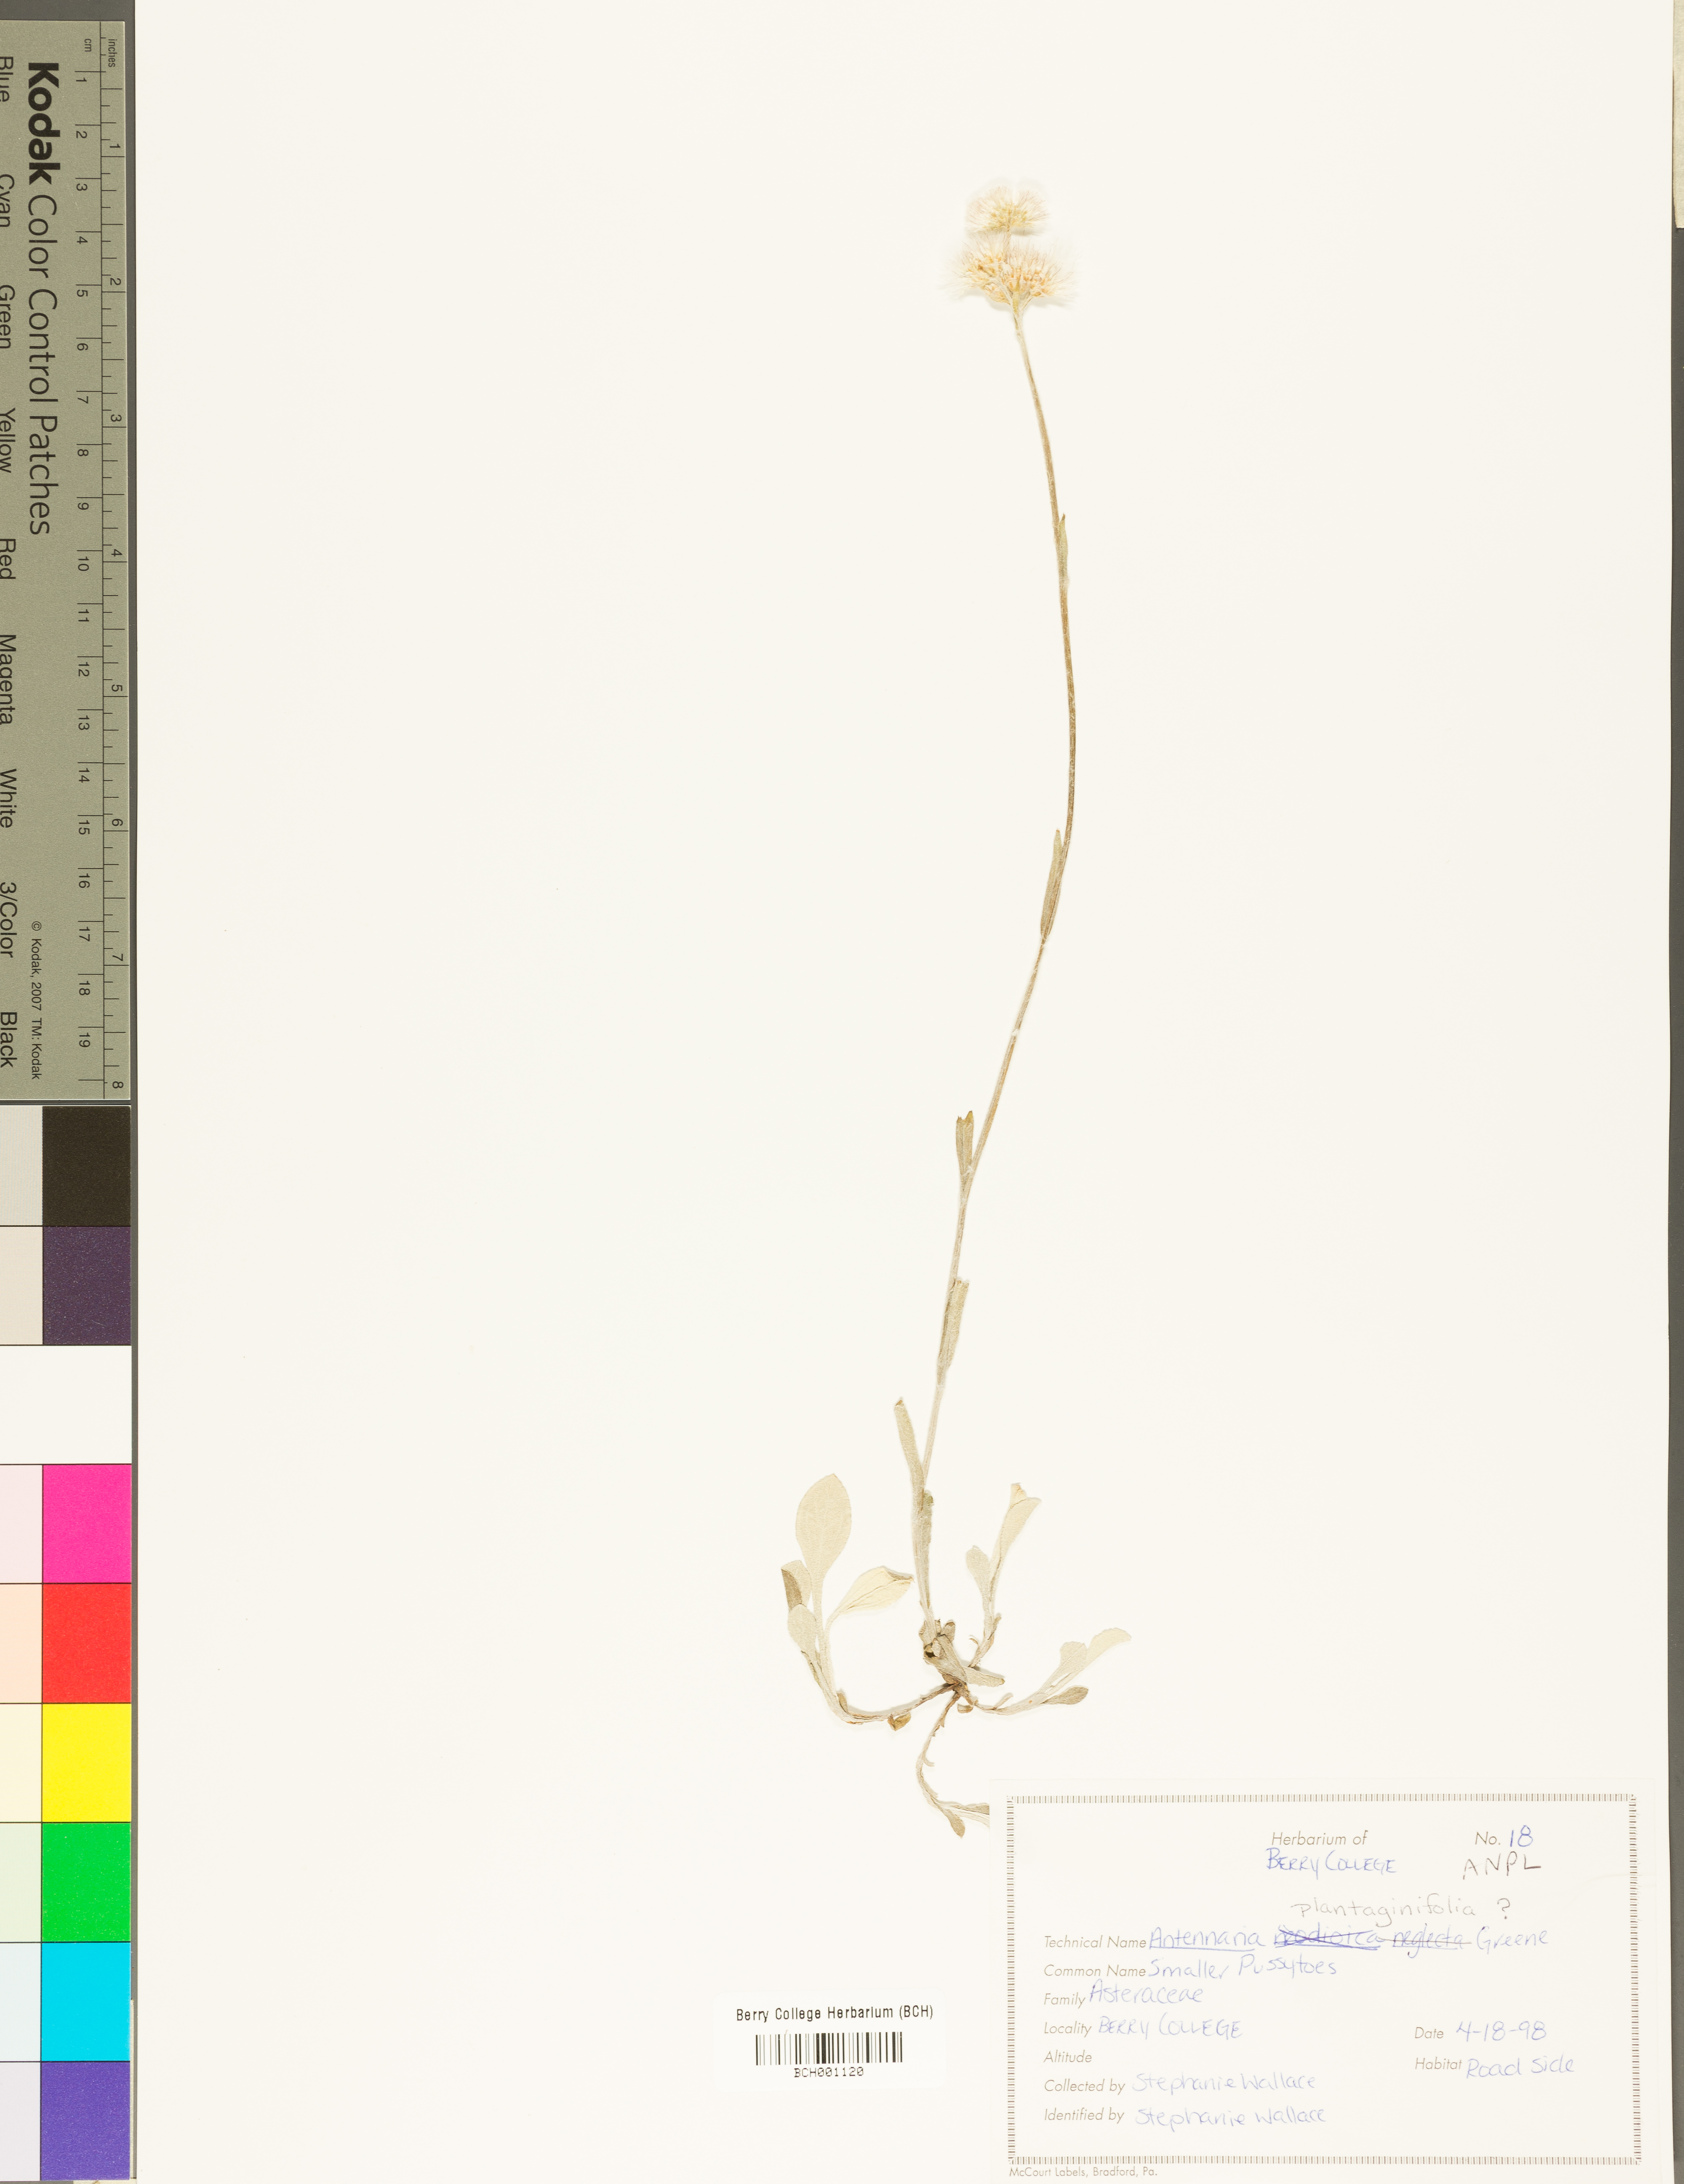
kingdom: Plantae
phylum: Tracheophyta
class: Magnoliopsida
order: Asterales
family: Asteraceae
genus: Antennaria
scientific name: Antennaria plantaginifolia
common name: Plantain-leaved pussytoes
